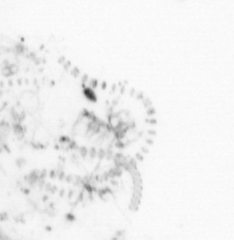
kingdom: Chromista
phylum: Ochrophyta
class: Bacillariophyceae
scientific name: Bacillariophyceae
